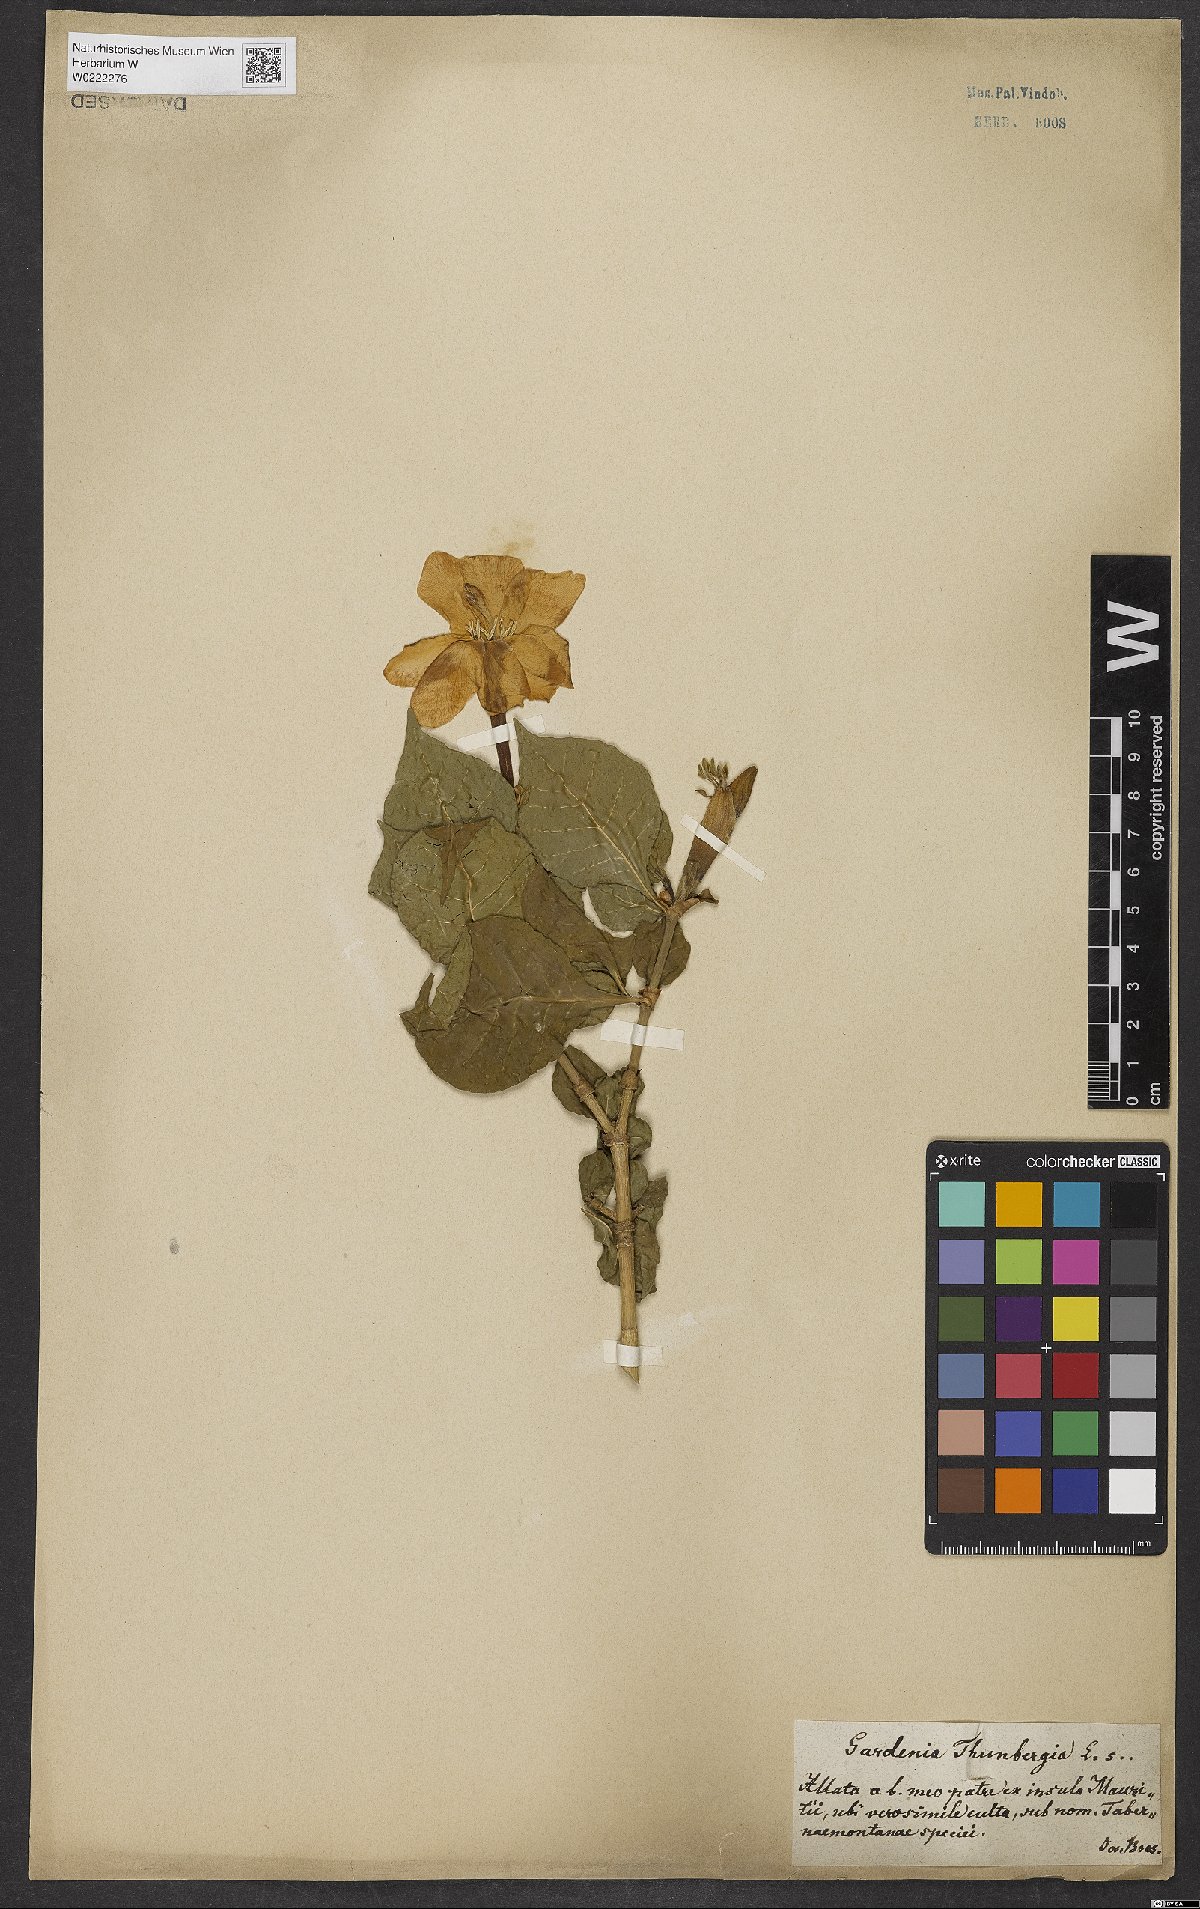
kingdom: Plantae
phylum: Tracheophyta
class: Magnoliopsida
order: Gentianales
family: Rubiaceae
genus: Gardenia
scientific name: Gardenia thunbergia
